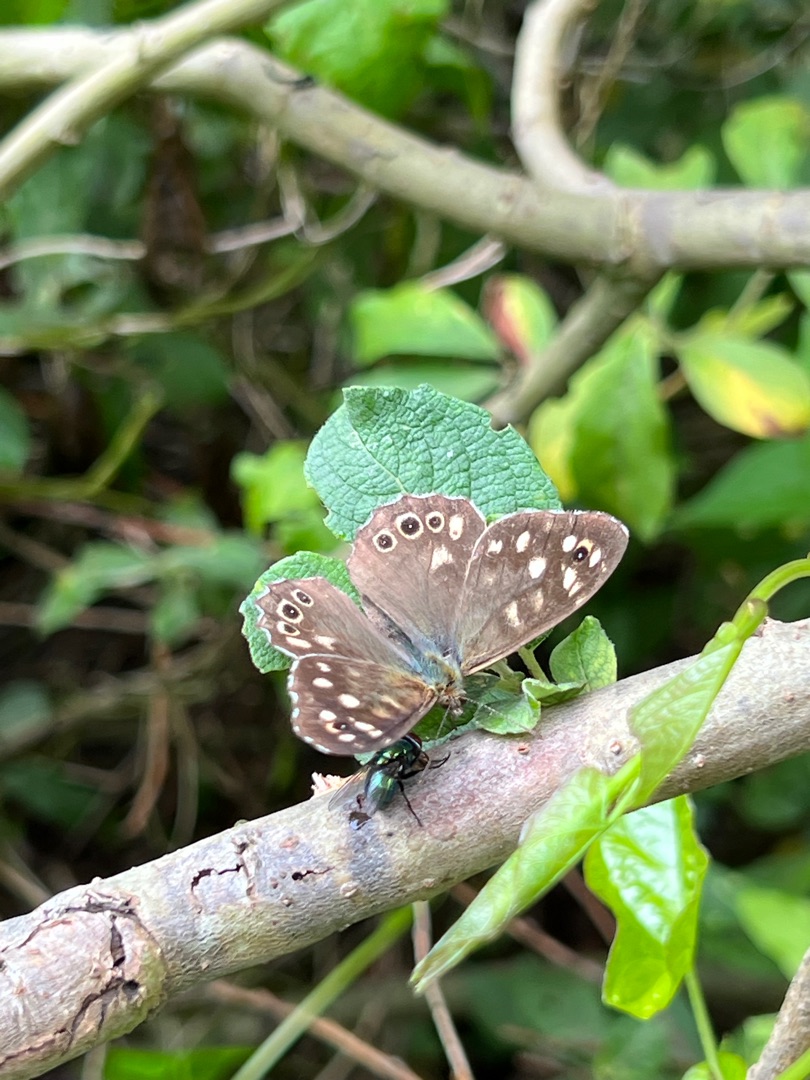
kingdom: Animalia
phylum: Arthropoda
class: Insecta
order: Lepidoptera
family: Nymphalidae
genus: Pararge
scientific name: Pararge aegeria
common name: Skovrandøje
